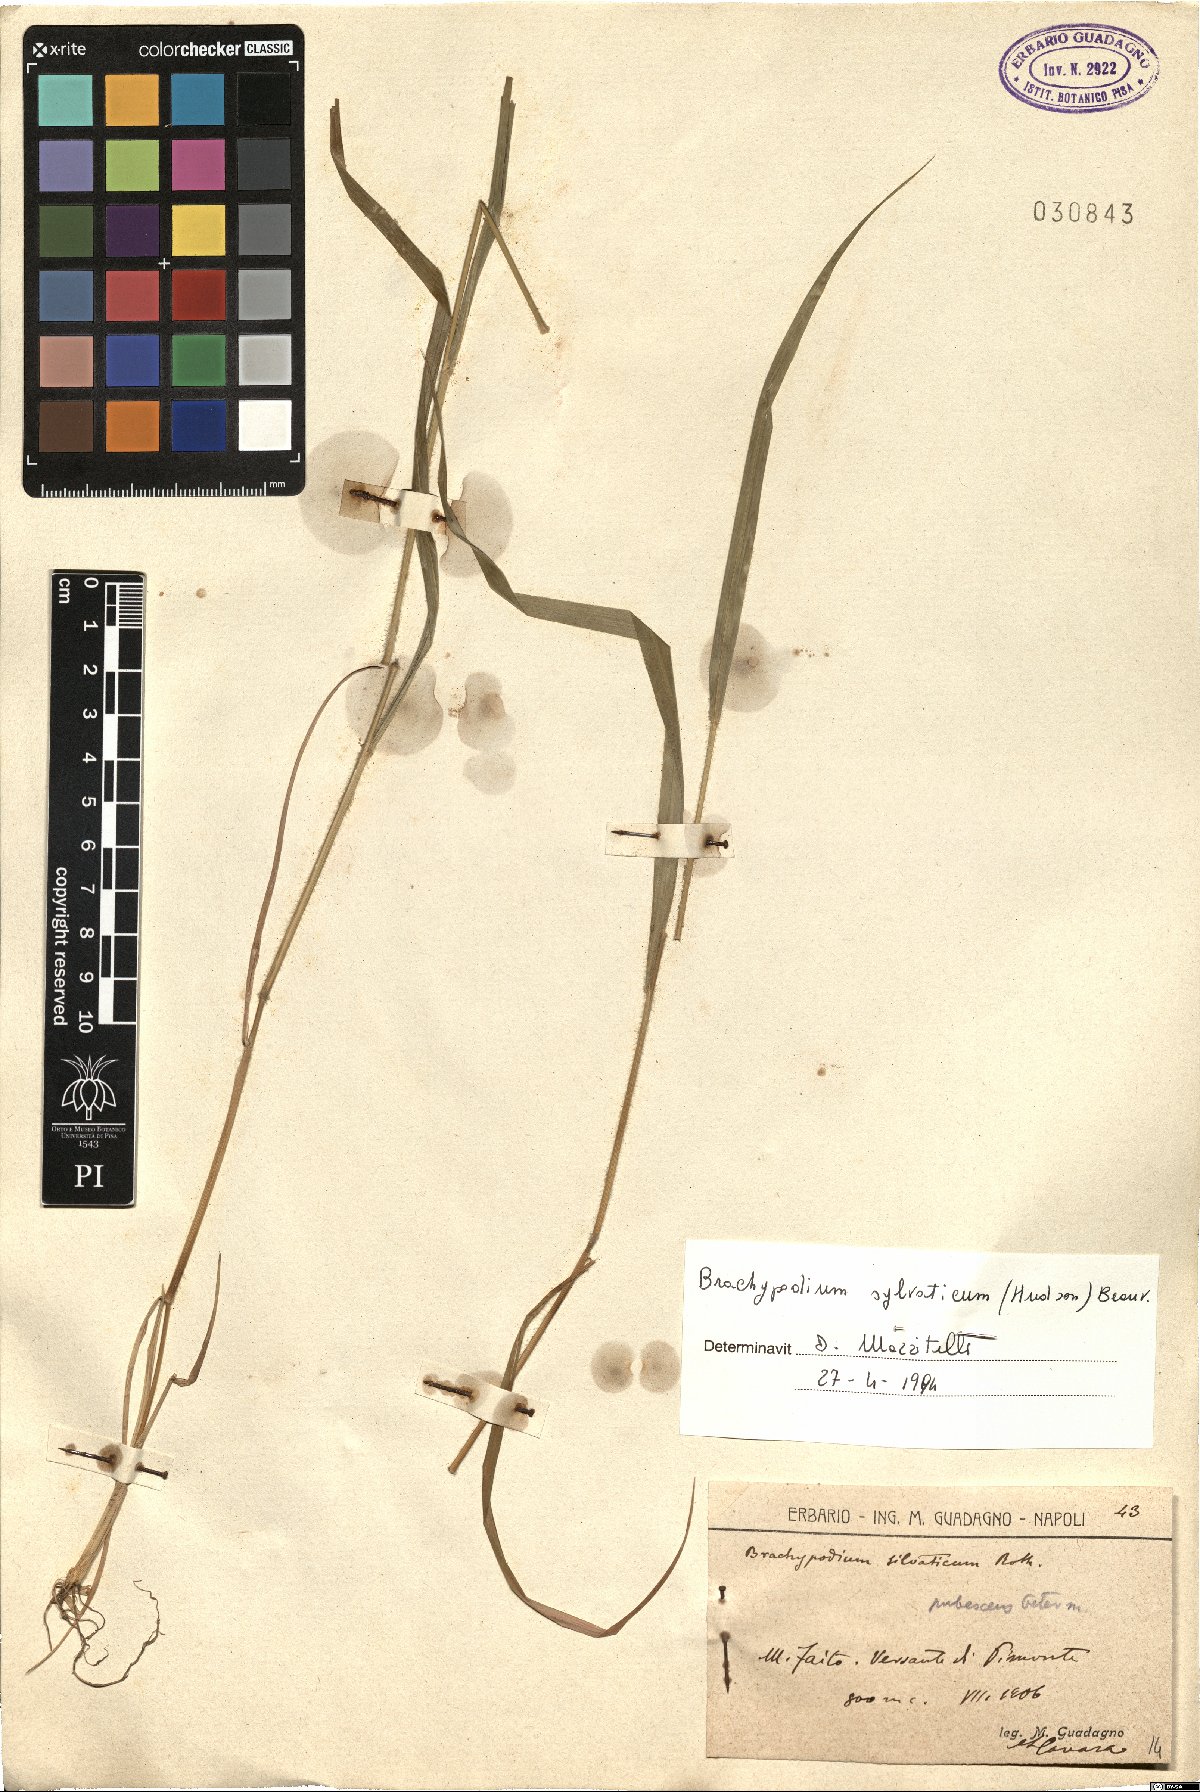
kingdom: Plantae
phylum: Tracheophyta
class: Liliopsida
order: Poales
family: Poaceae
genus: Brachypodium
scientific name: Brachypodium sylvaticum
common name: False-brome
